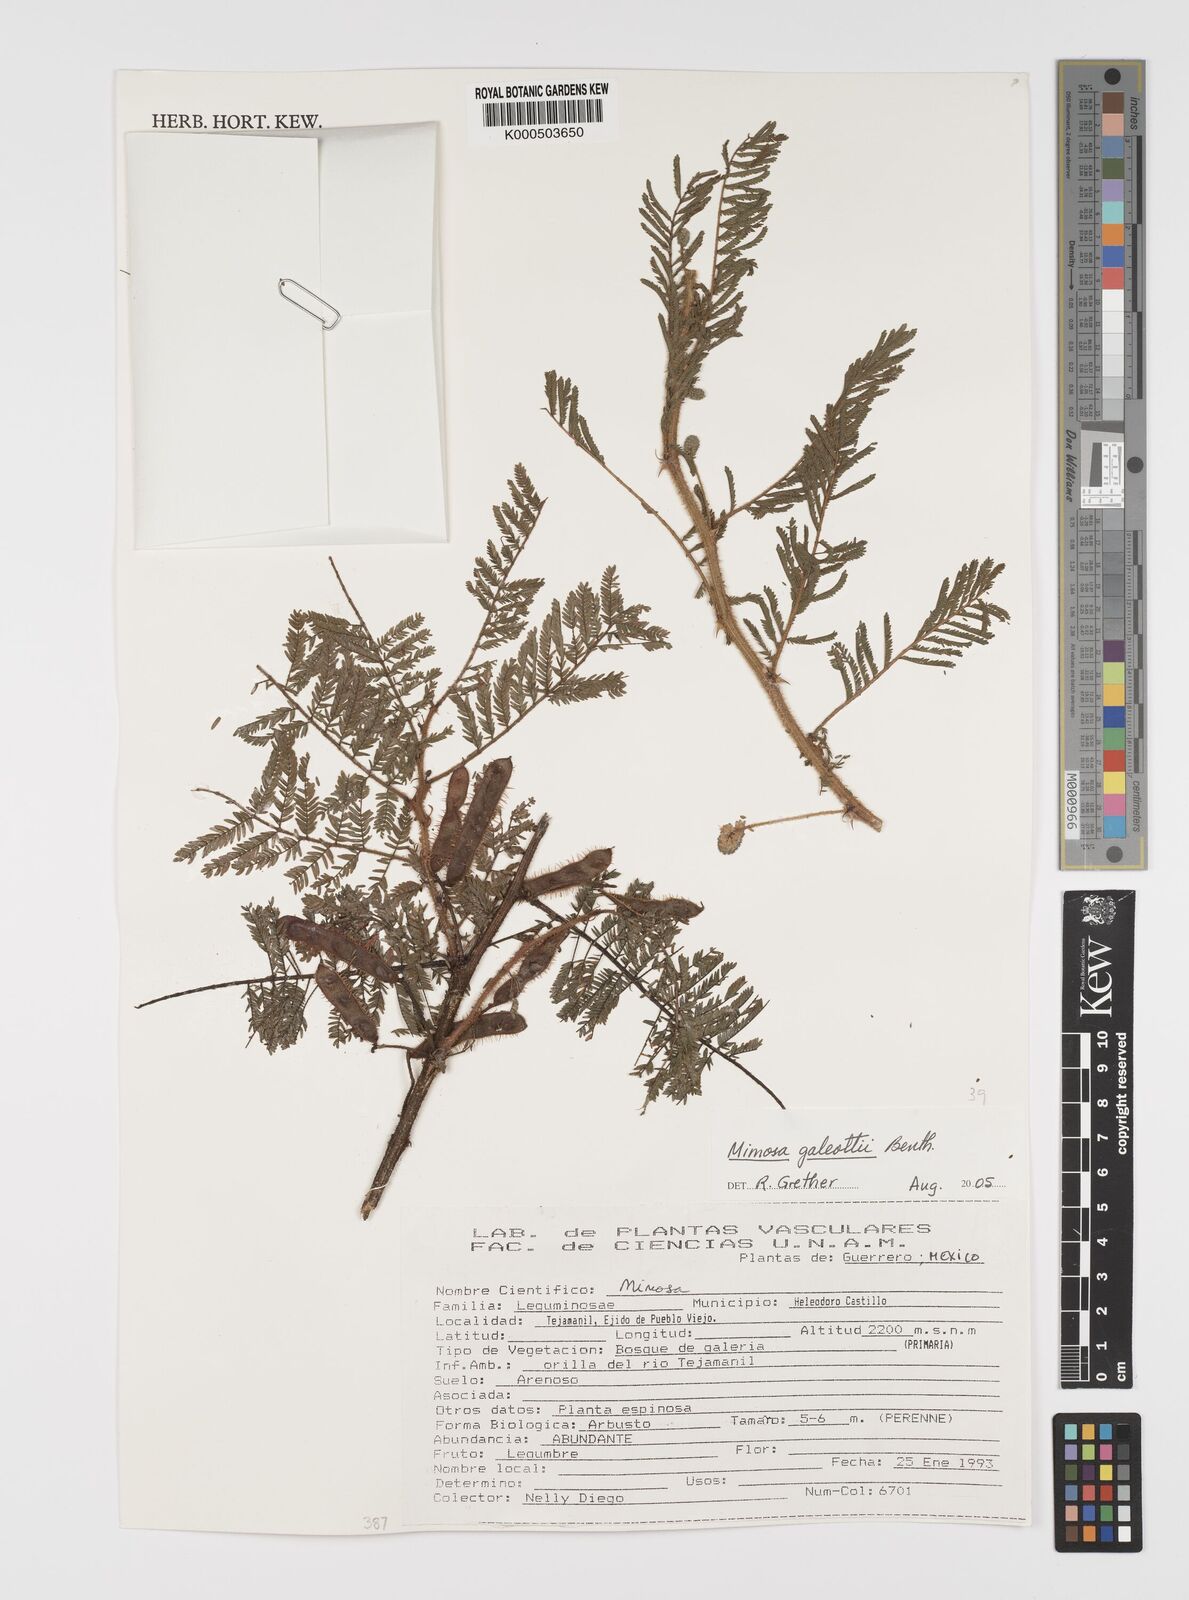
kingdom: Plantae
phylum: Tracheophyta
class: Magnoliopsida
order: Fabales
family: Fabaceae
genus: Mimosa
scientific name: Mimosa galeottii
